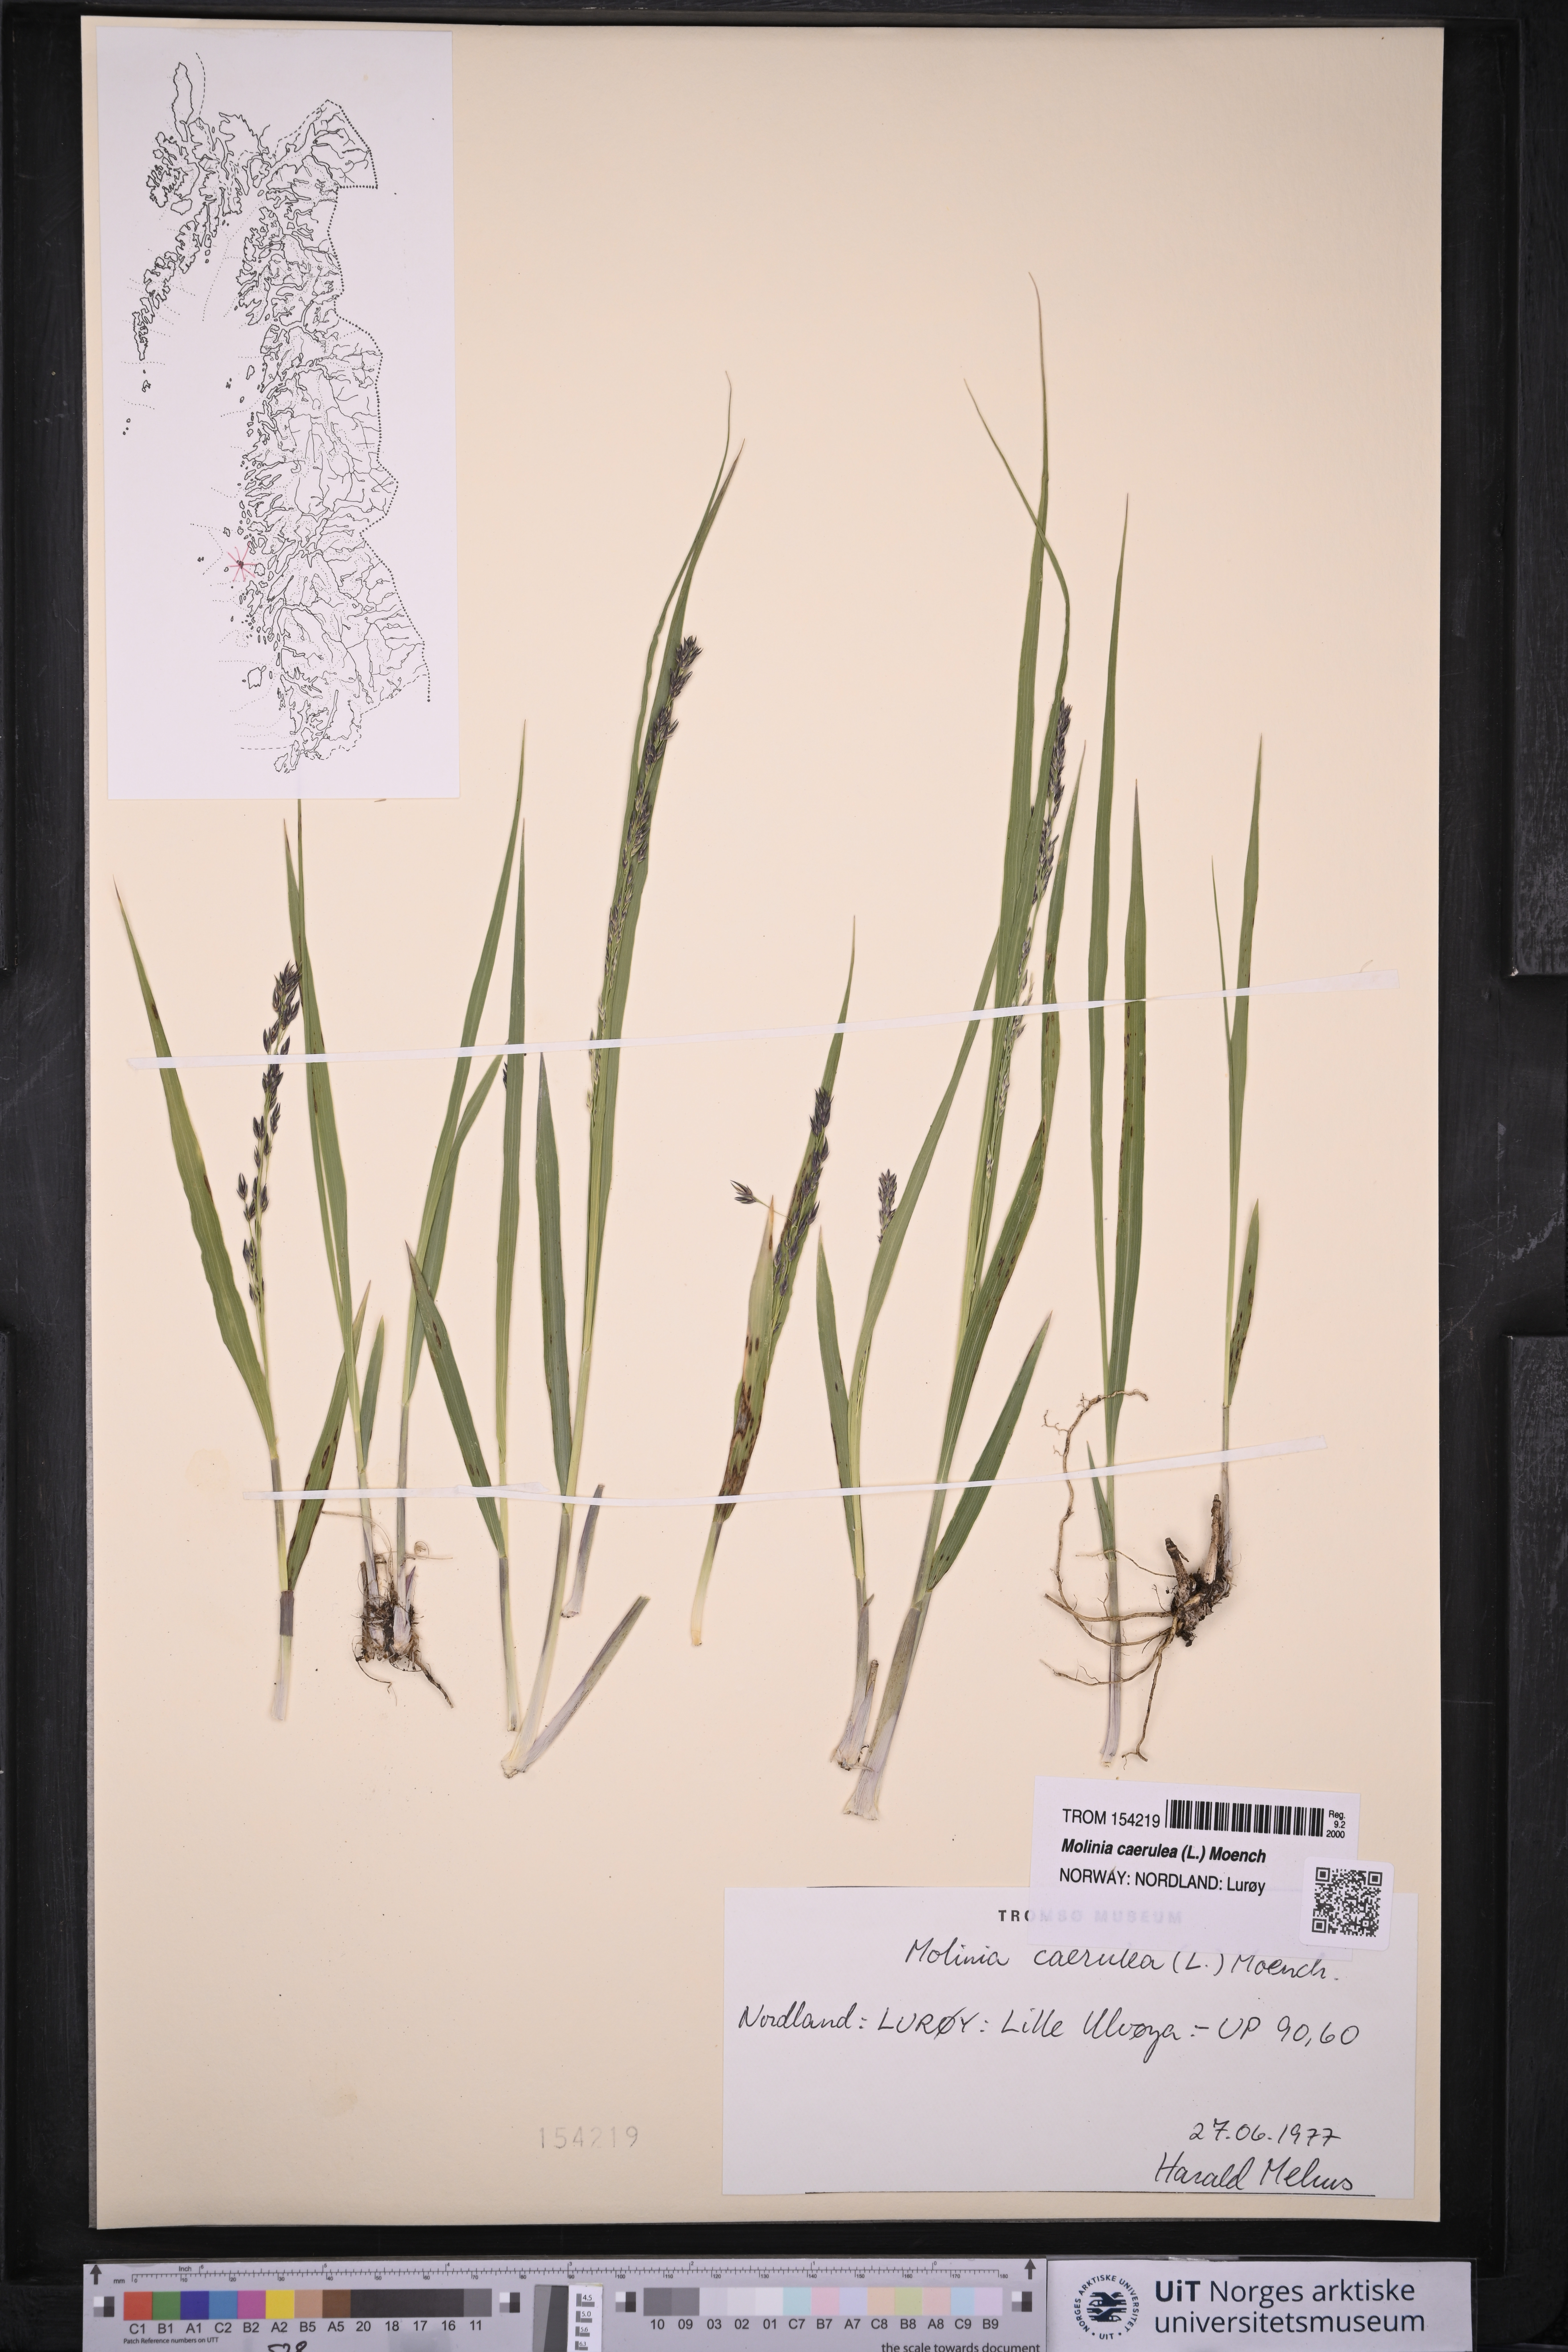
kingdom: Plantae
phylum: Tracheophyta
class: Liliopsida
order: Poales
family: Poaceae
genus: Molinia
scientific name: Molinia caerulea
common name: Purple moor-grass
